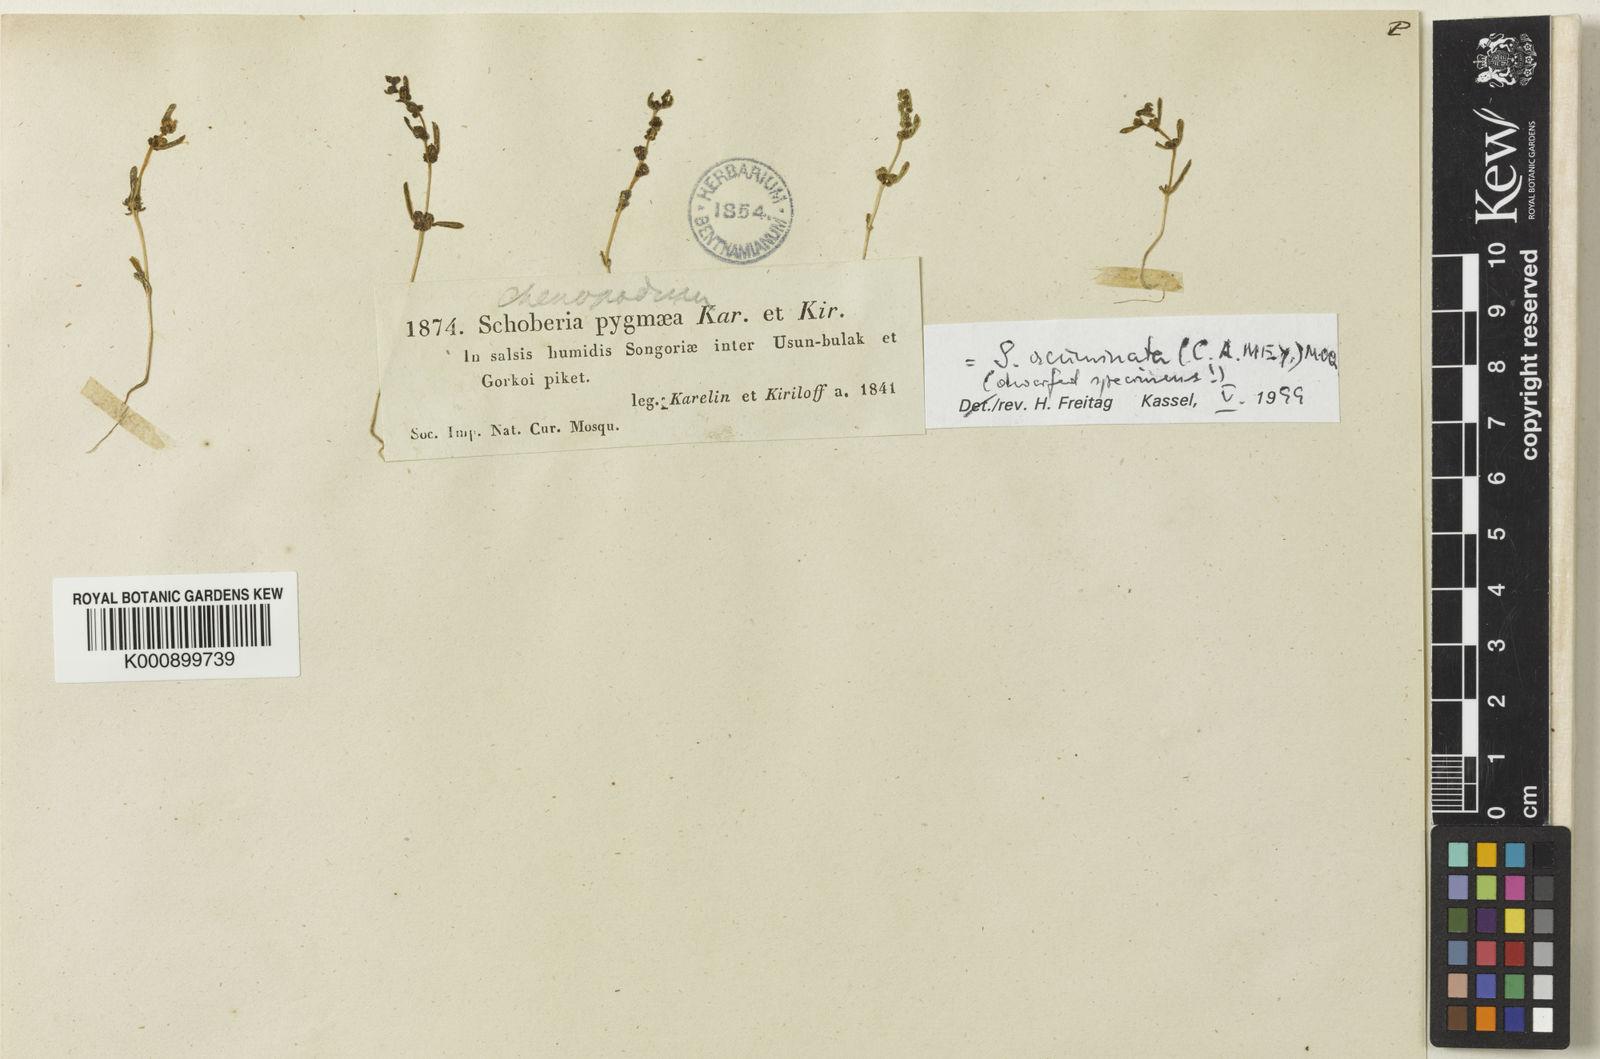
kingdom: Plantae
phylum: Tracheophyta
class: Magnoliopsida
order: Caryophyllales
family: Amaranthaceae
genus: Suaeda
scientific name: Suaeda microsperma
